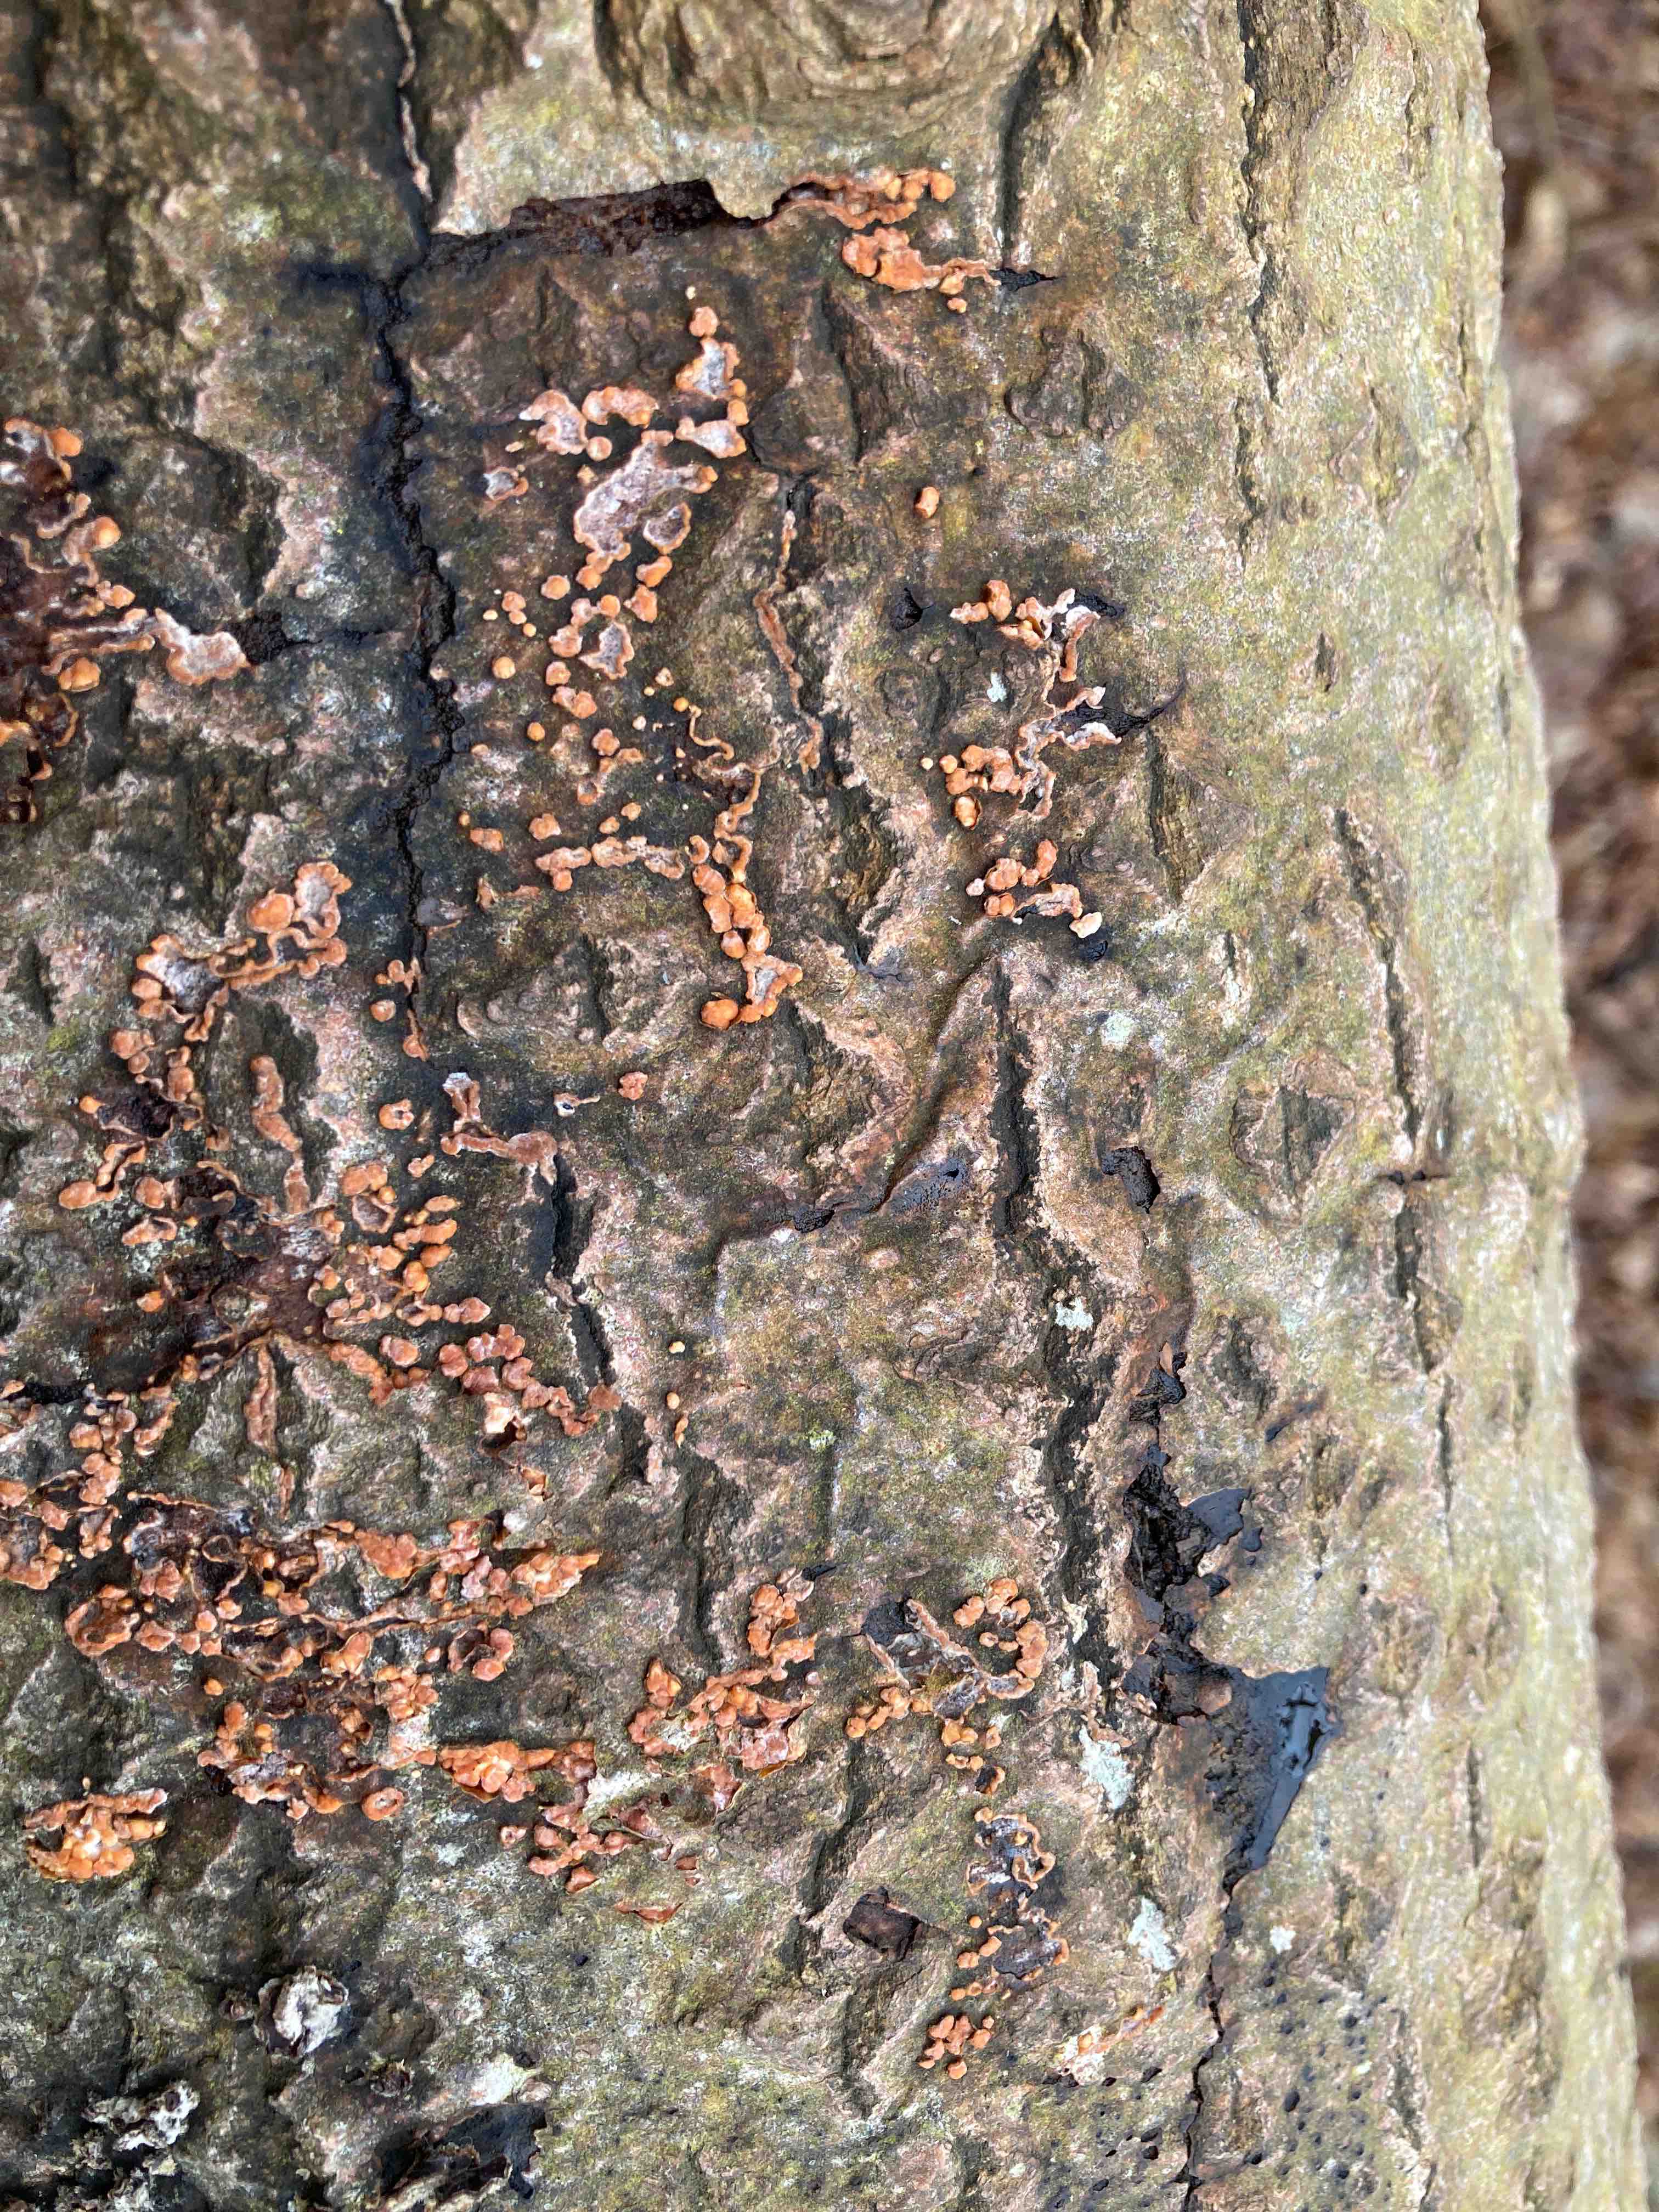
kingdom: Fungi
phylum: Basidiomycota
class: Agaricomycetes
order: Russulales
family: Peniophoraceae
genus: Peniophora
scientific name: Peniophora polygonia
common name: polygon-voksskind
